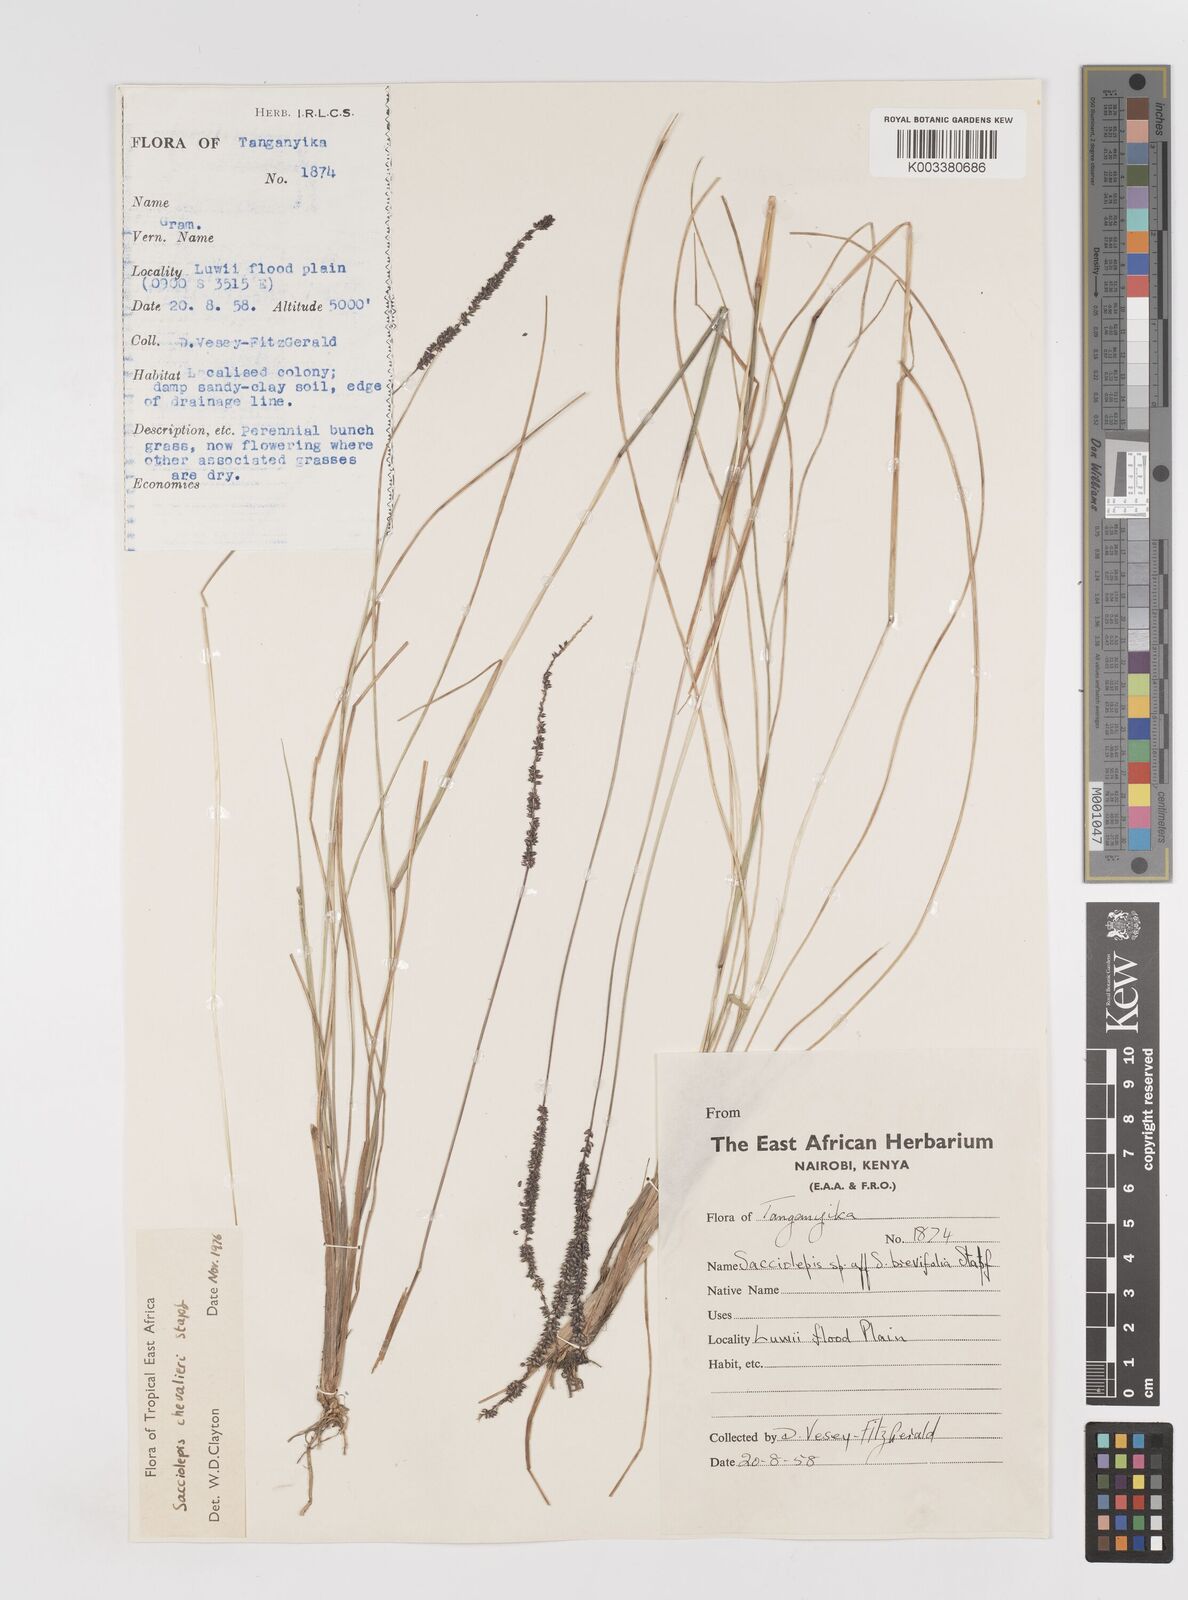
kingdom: Plantae
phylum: Tracheophyta
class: Liliopsida
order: Poales
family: Poaceae
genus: Sacciolepis
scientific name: Sacciolepis chevalieri
